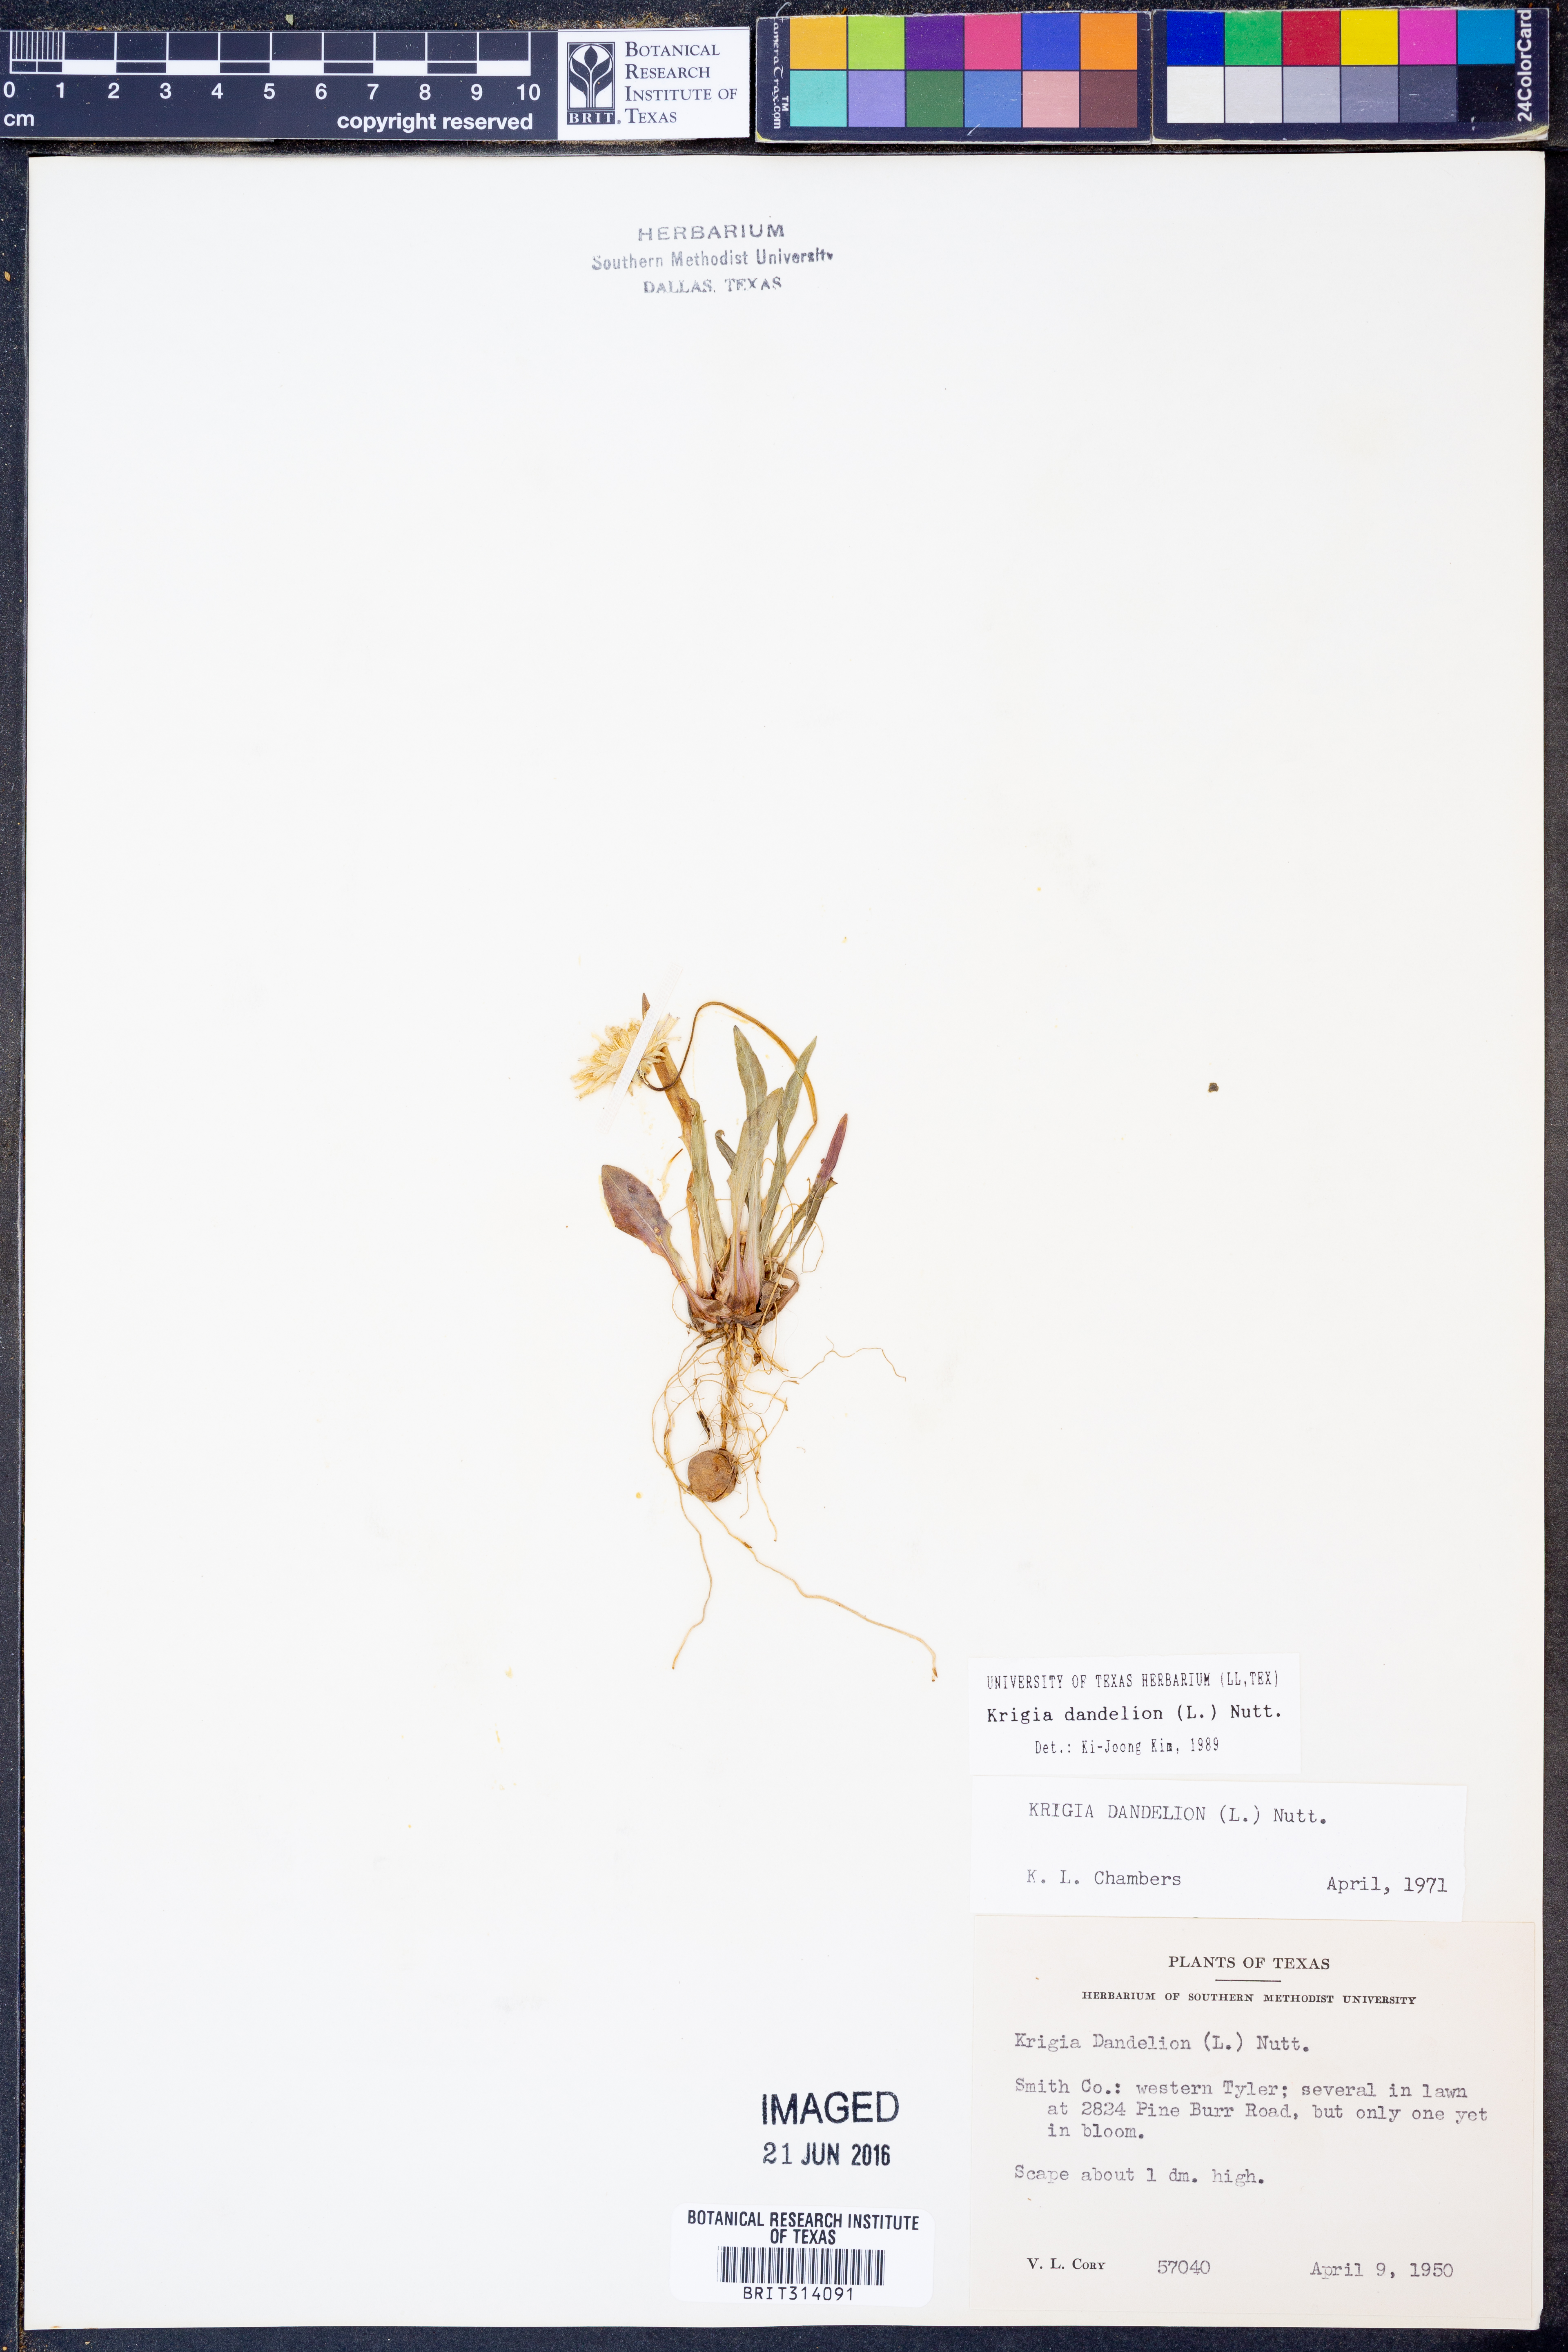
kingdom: Plantae
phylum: Tracheophyta
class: Magnoliopsida
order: Asterales
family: Asteraceae
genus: Krigia
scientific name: Krigia dandelion
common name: Colonial dwarf-dandelion
